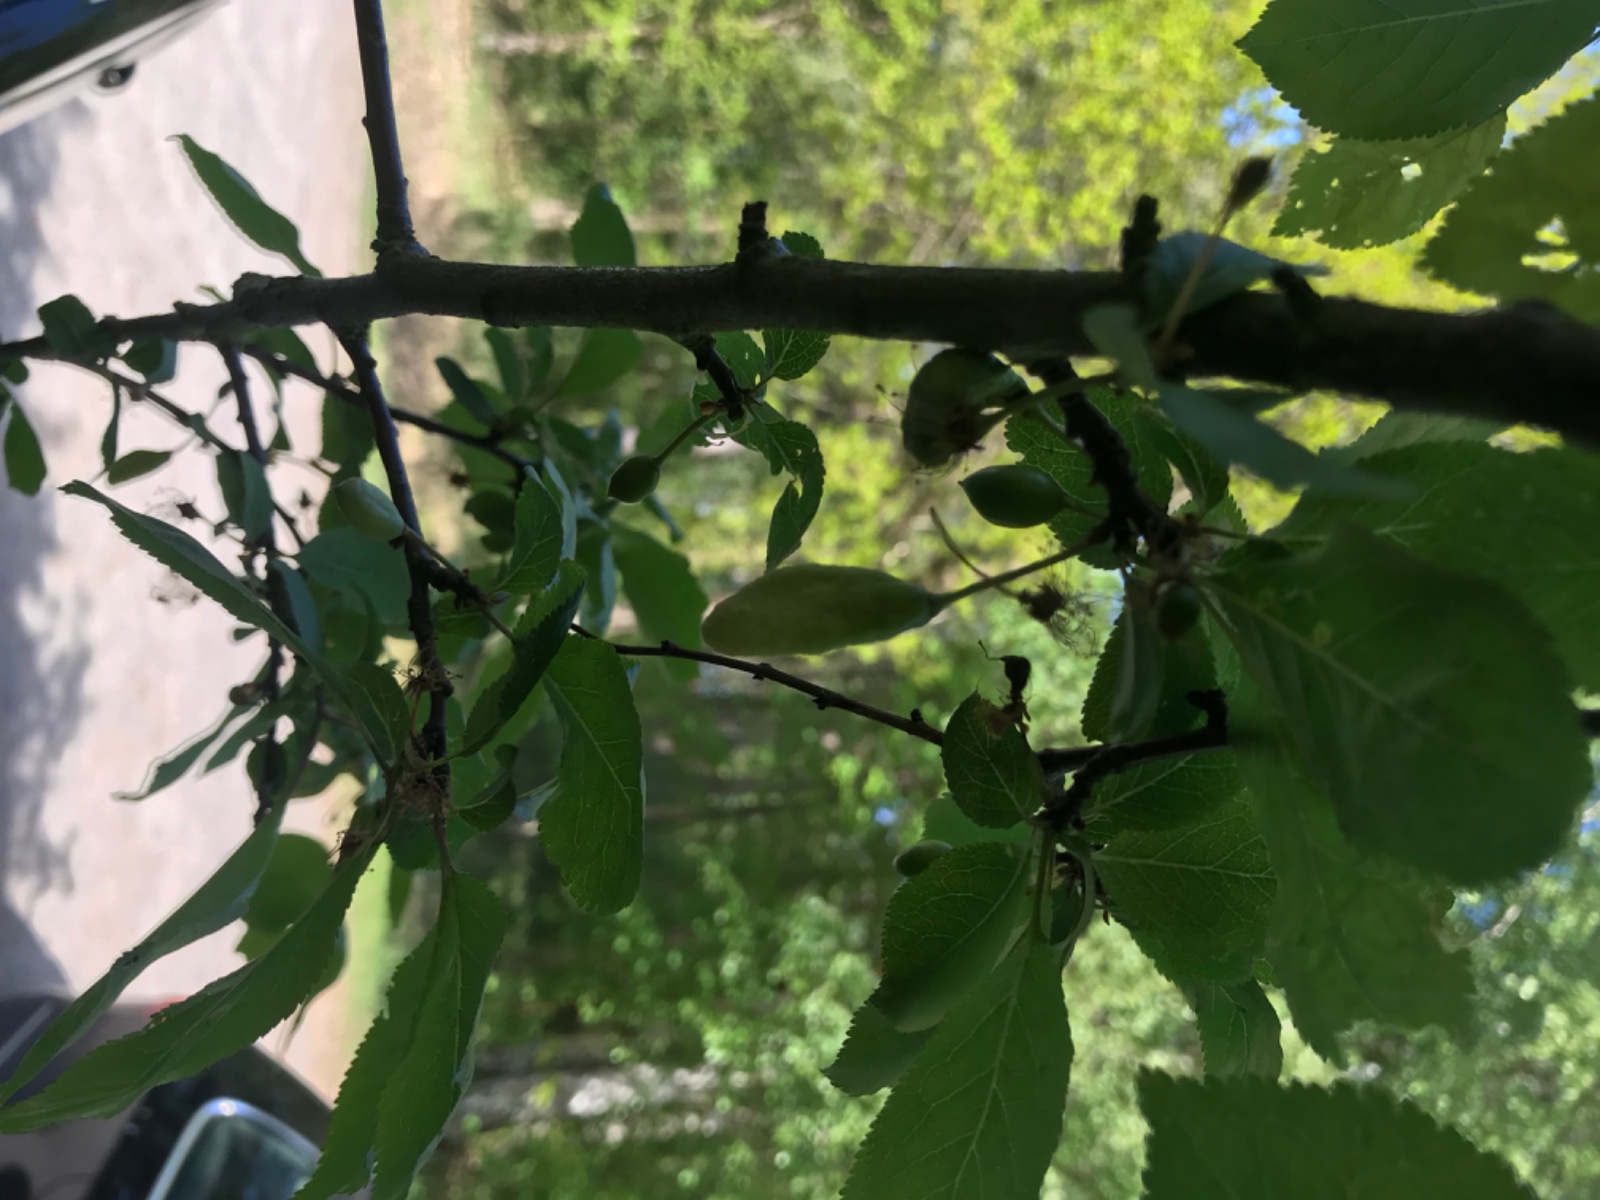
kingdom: Fungi
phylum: Ascomycota
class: Taphrinomycetes
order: Taphrinales
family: Taphrinaceae
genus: Taphrina
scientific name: Taphrina pruni
